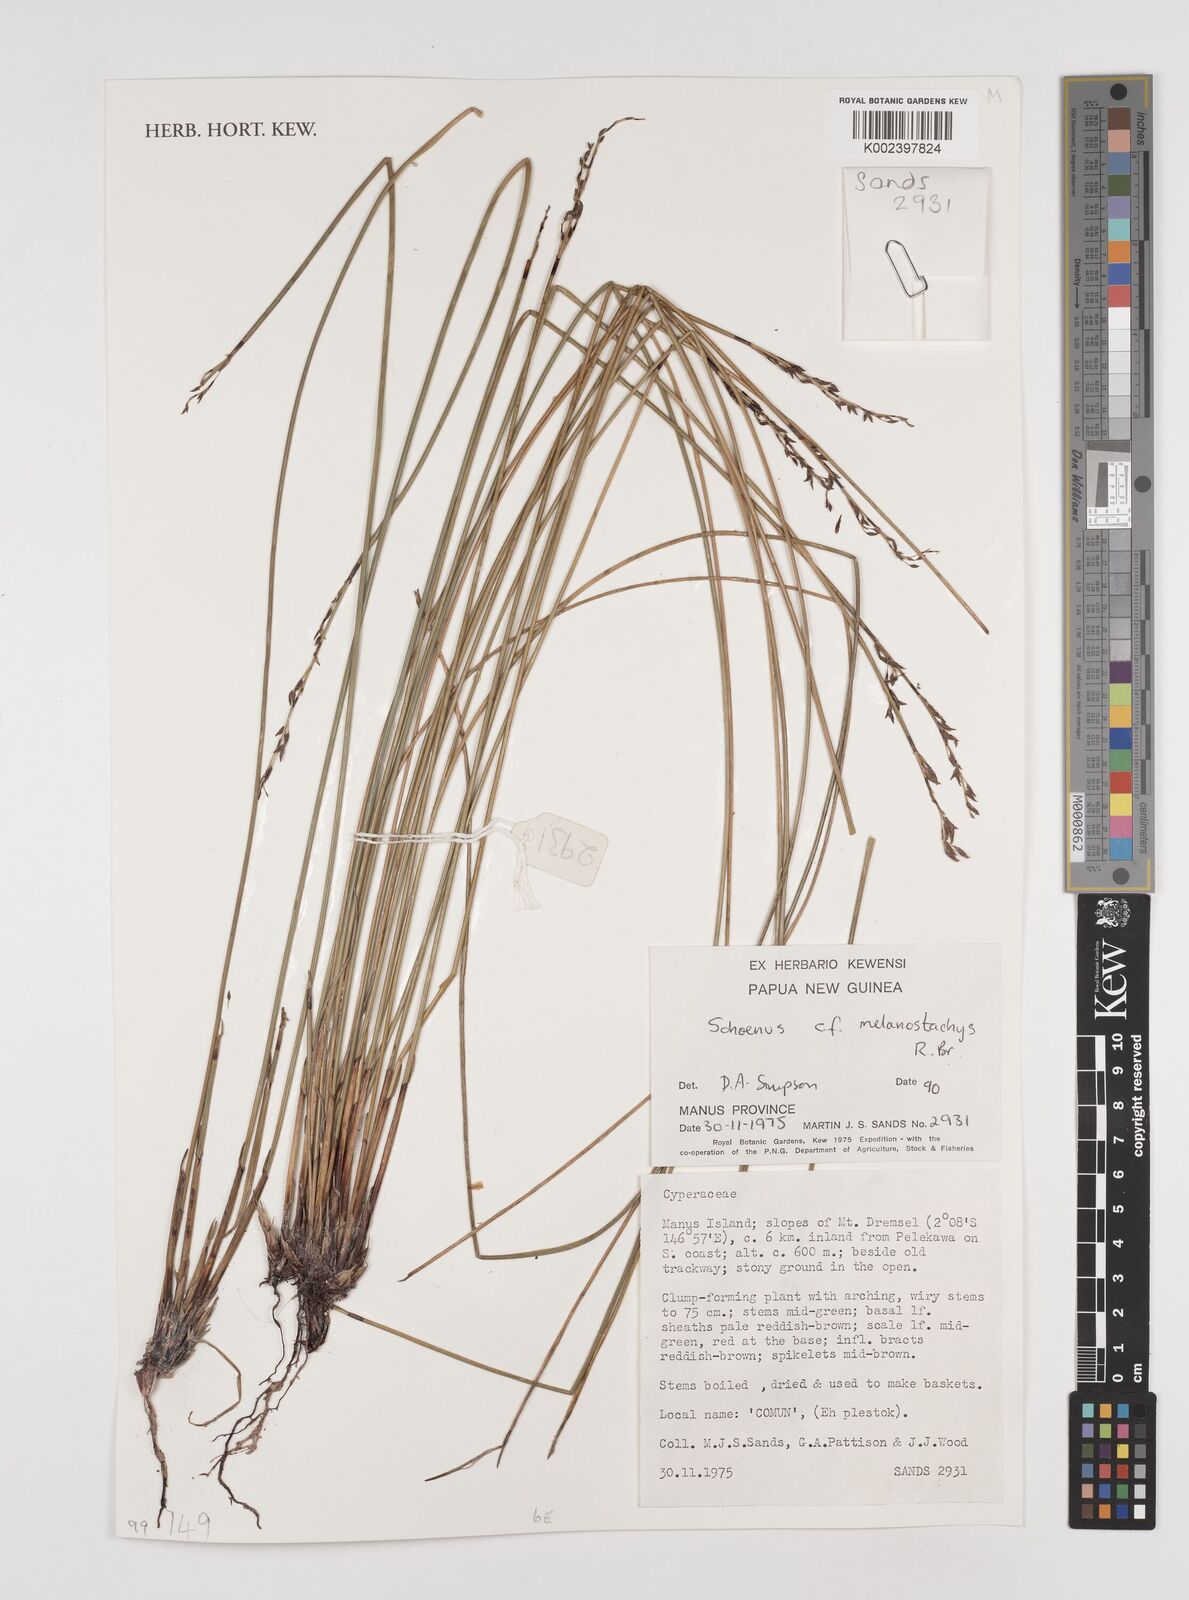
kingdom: Plantae
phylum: Tracheophyta
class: Liliopsida
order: Poales
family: Cyperaceae
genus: Schoenus
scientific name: Schoenus melanostachys
